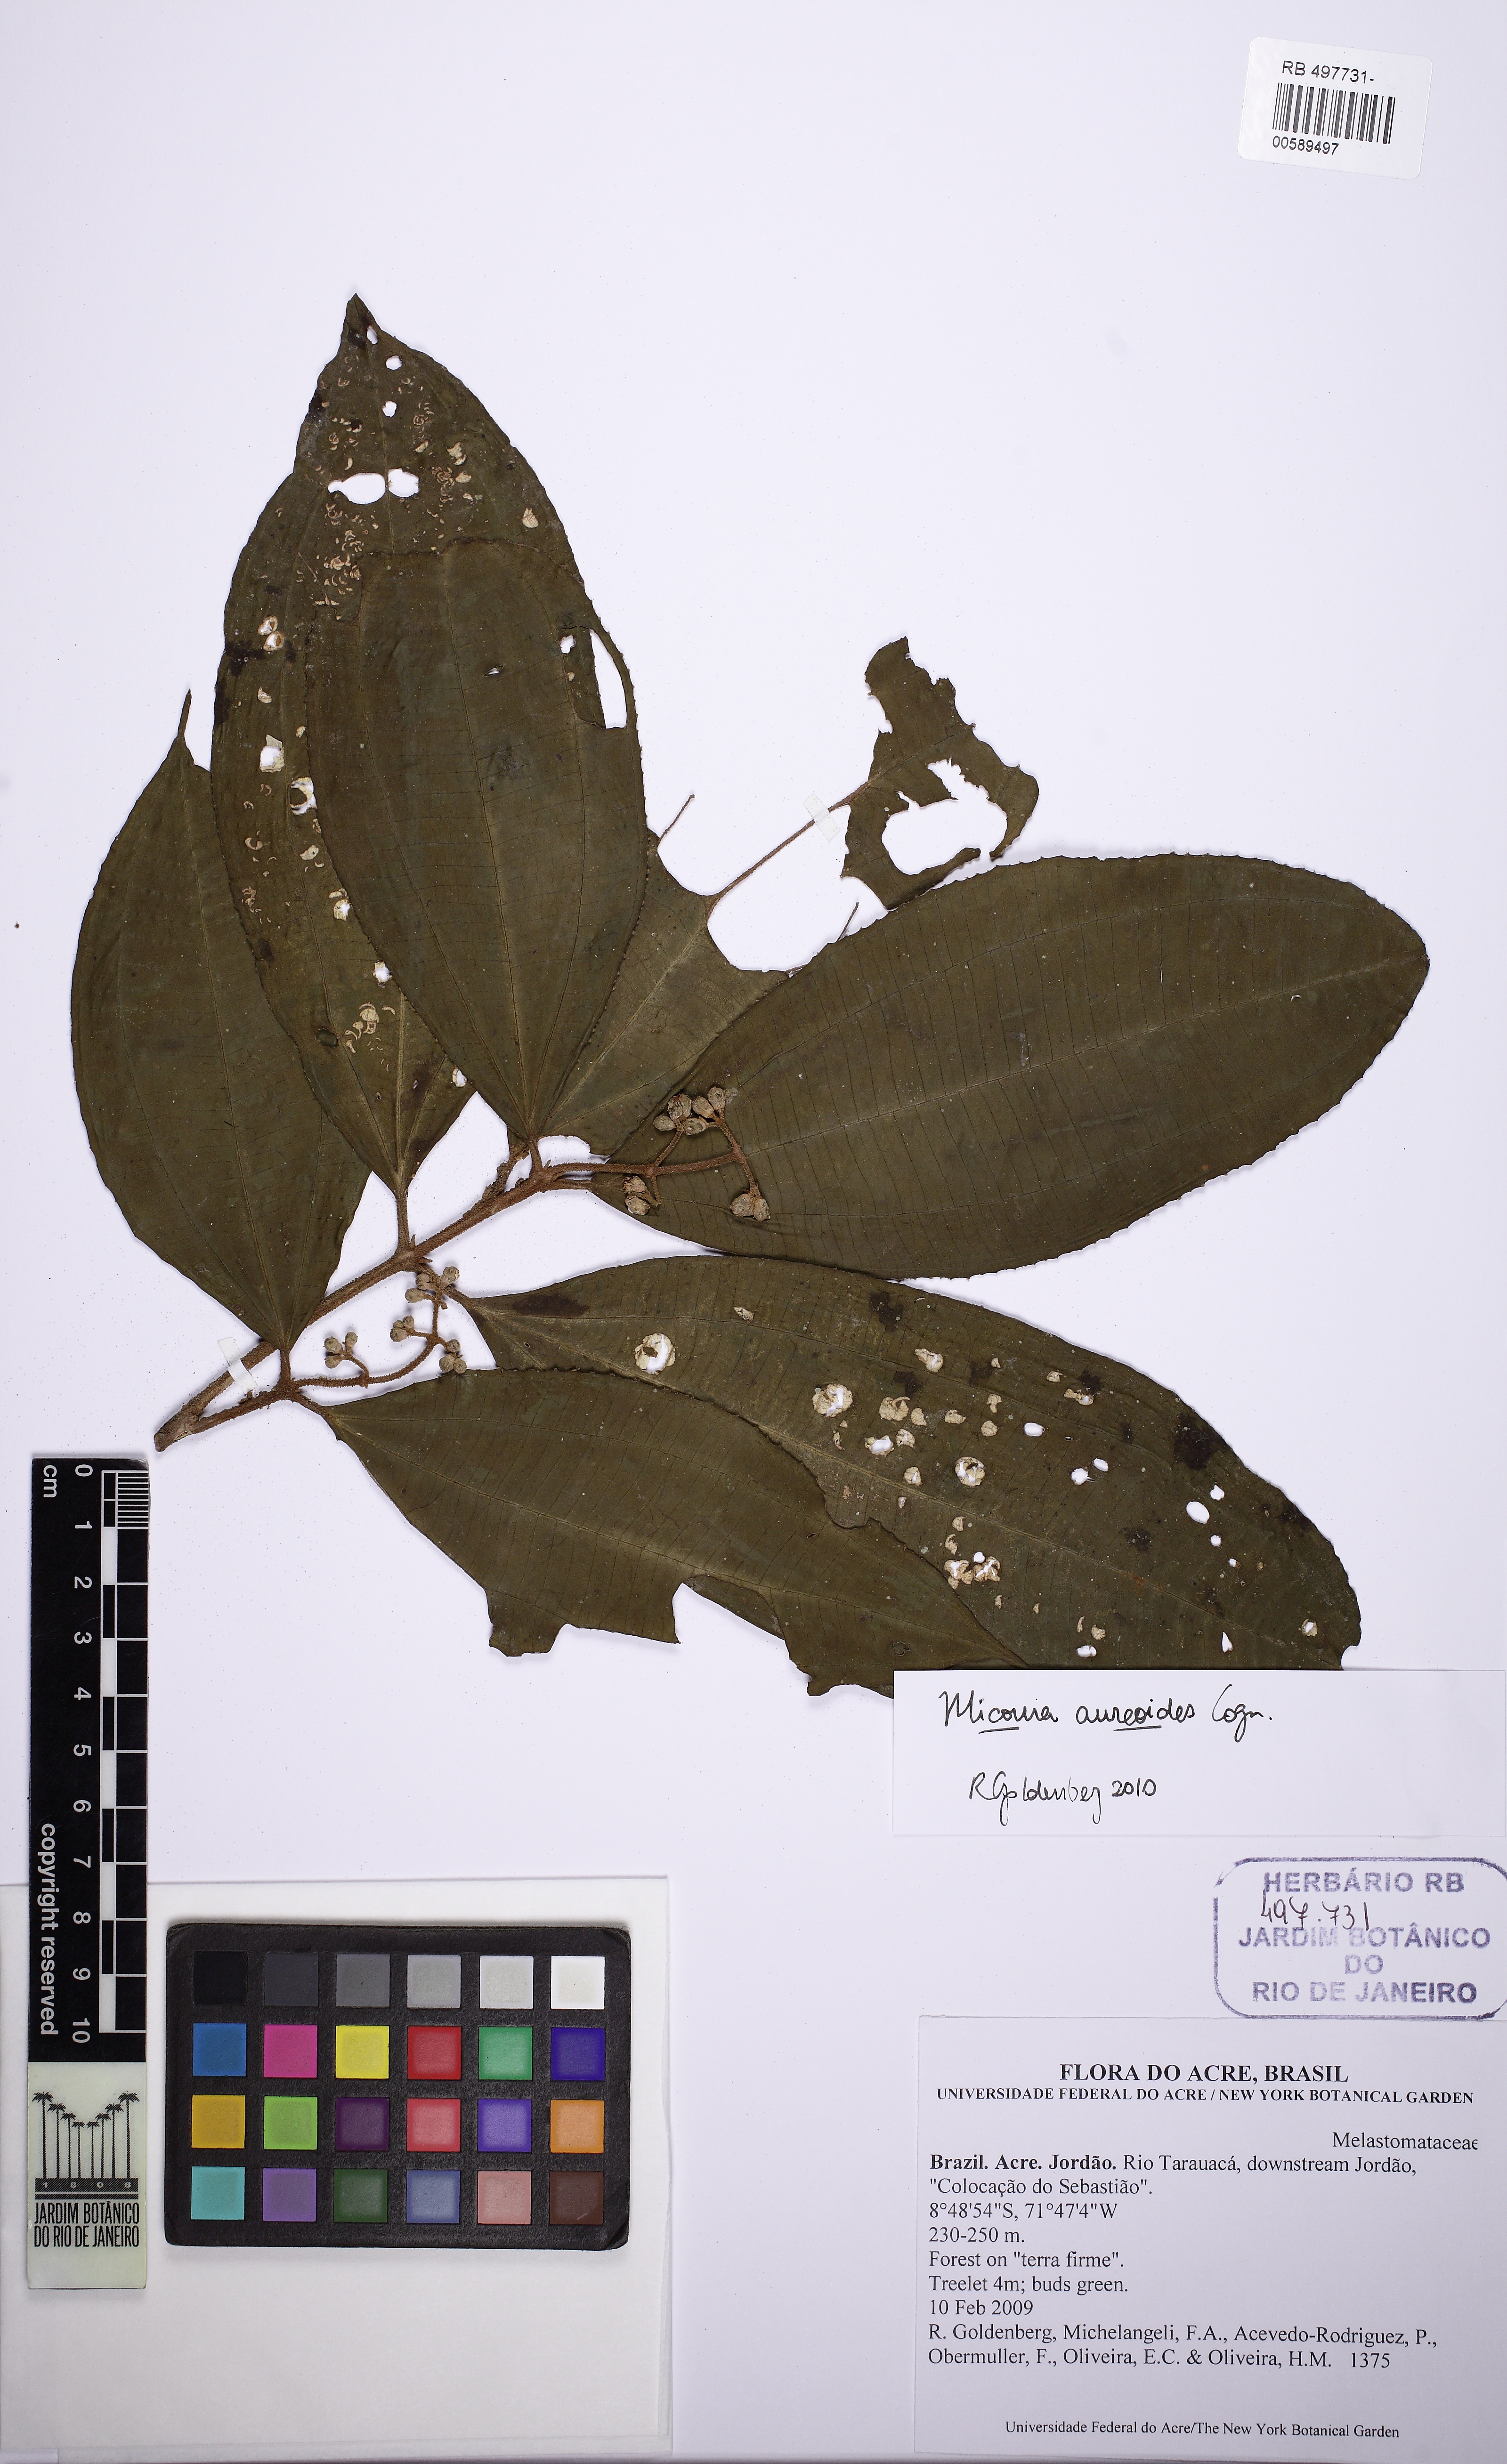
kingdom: Plantae
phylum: Tracheophyta
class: Magnoliopsida
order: Myrtales
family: Melastomataceae
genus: Miconia
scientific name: Miconia aureoides
